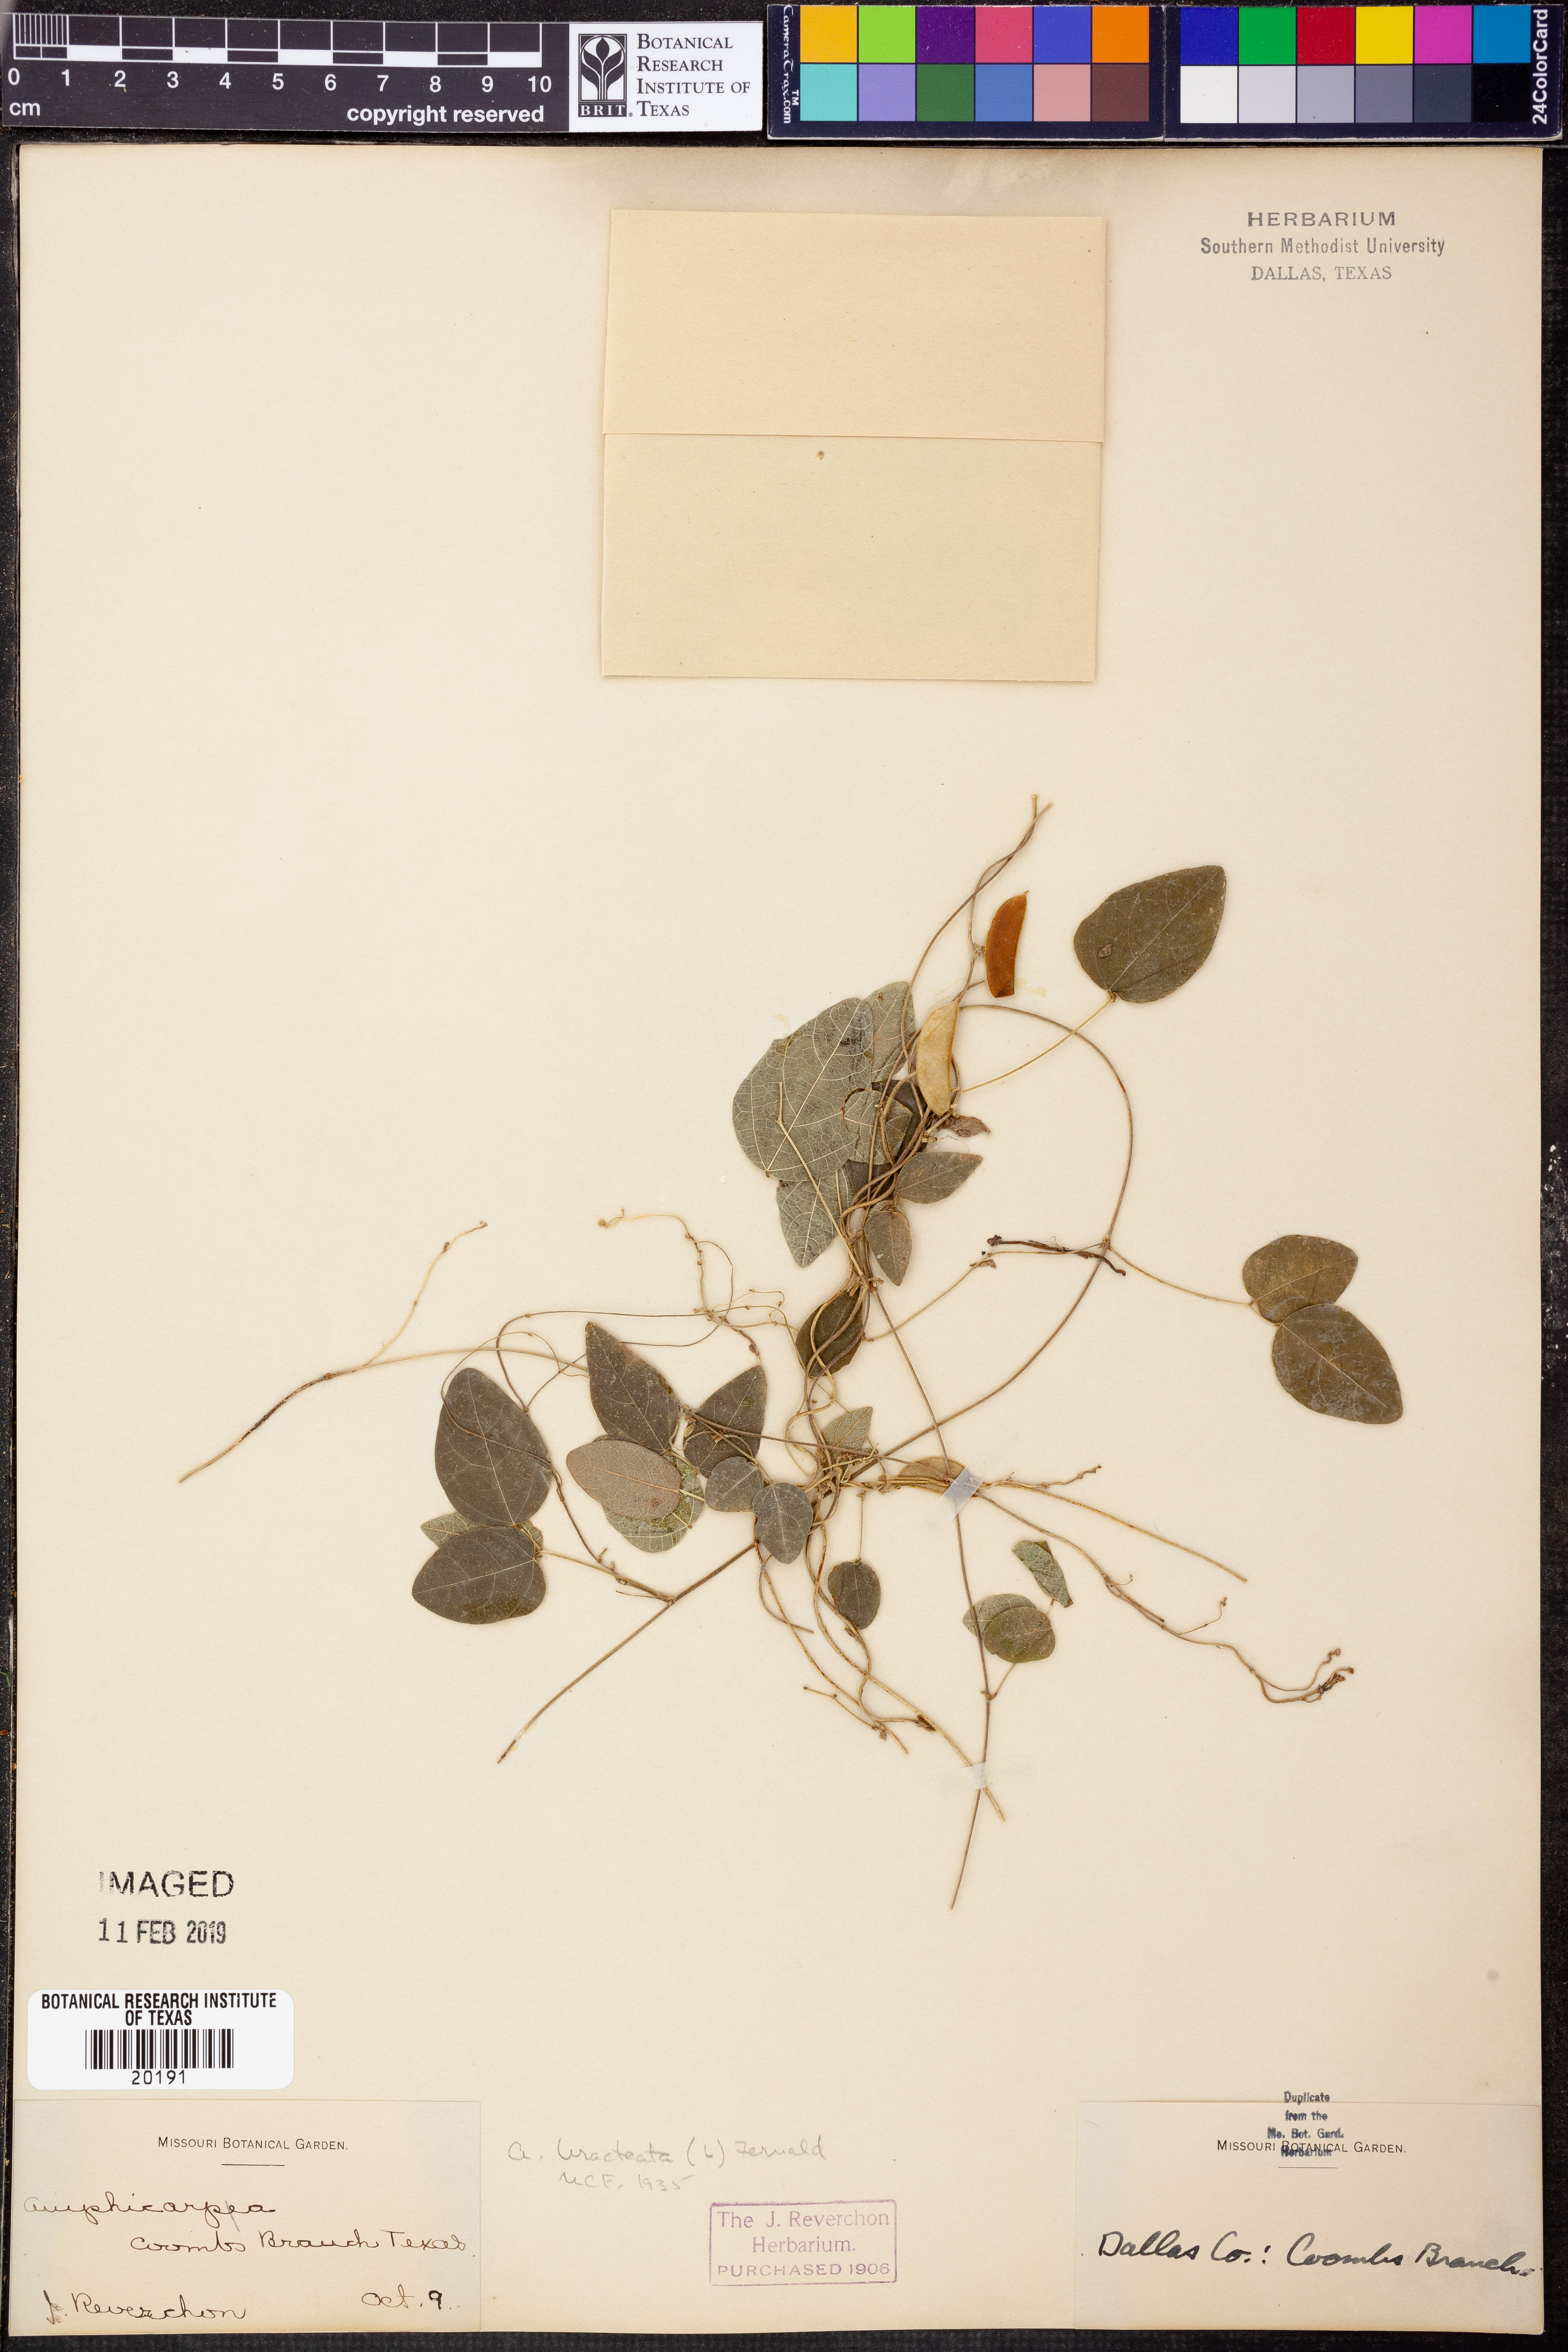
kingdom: Plantae
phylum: Tracheophyta
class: Magnoliopsida
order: Fabales
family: Fabaceae
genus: Amphicarpaea
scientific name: Amphicarpaea bracteata
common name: American hog peanut
